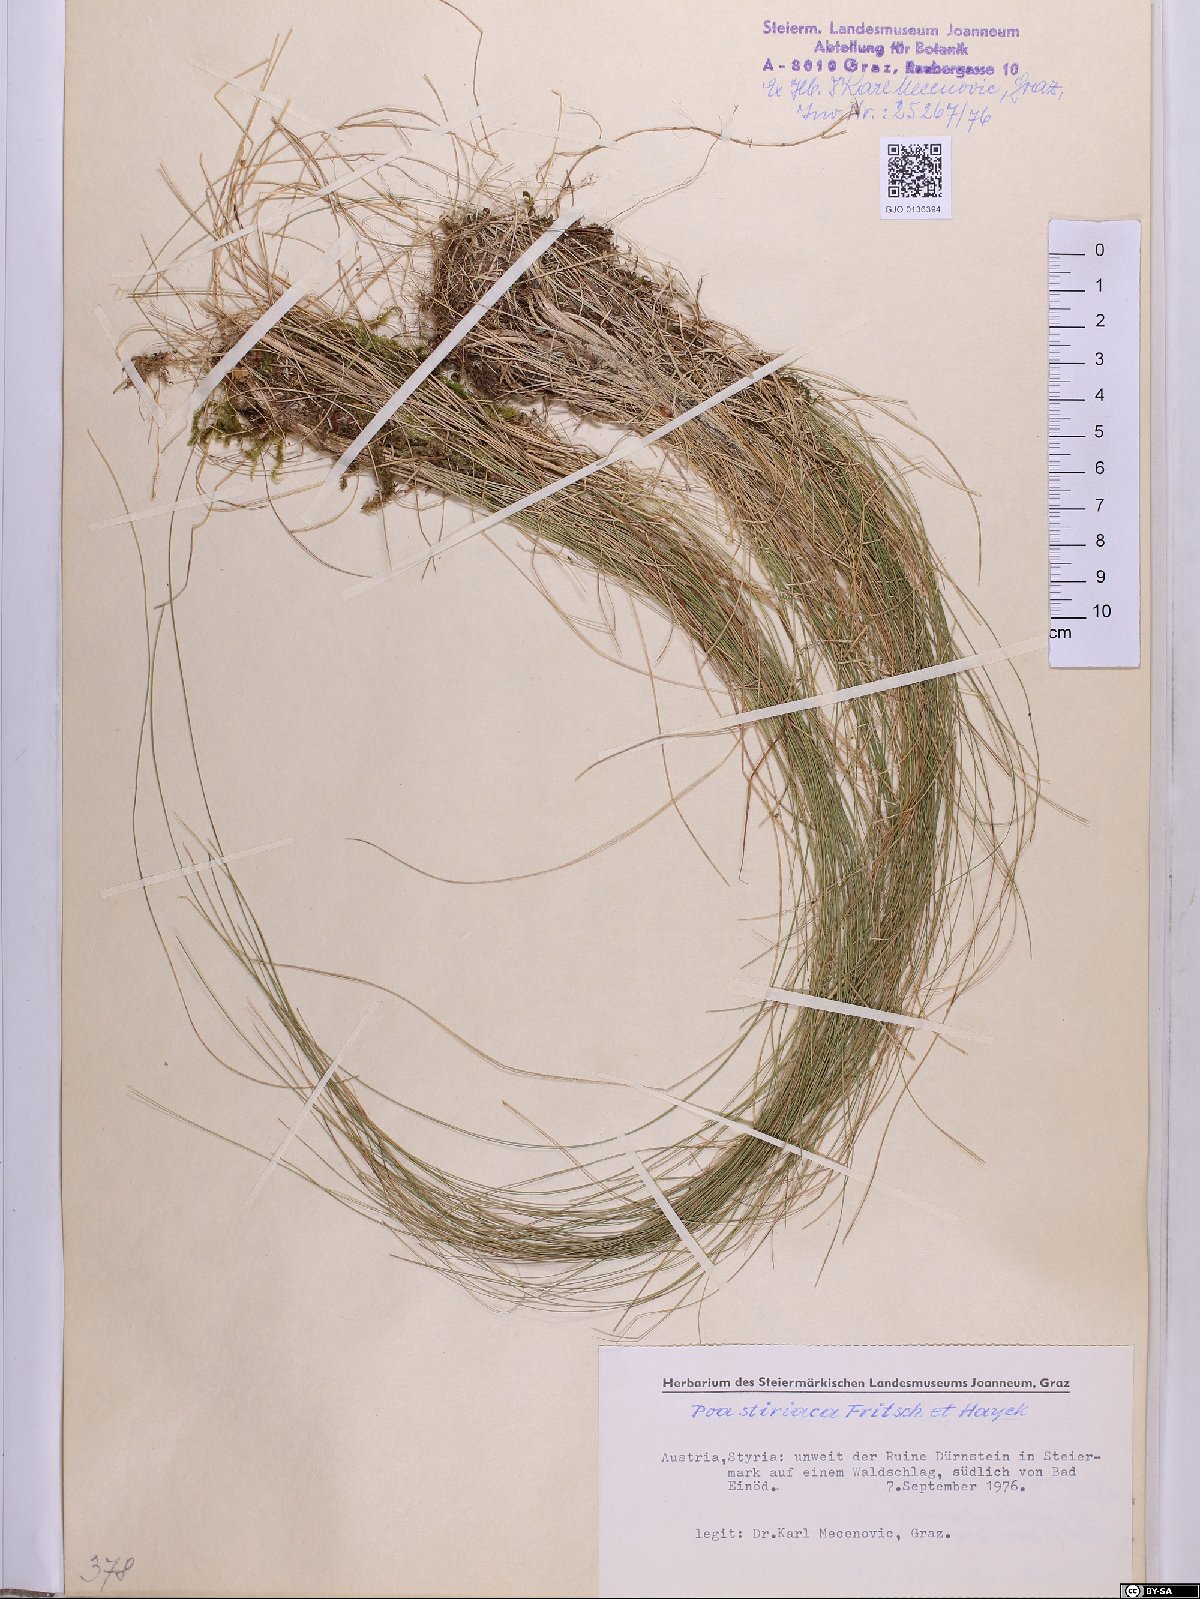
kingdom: Plantae
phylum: Tracheophyta
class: Liliopsida
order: Poales
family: Poaceae
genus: Poa
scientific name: Poa stiriaca
